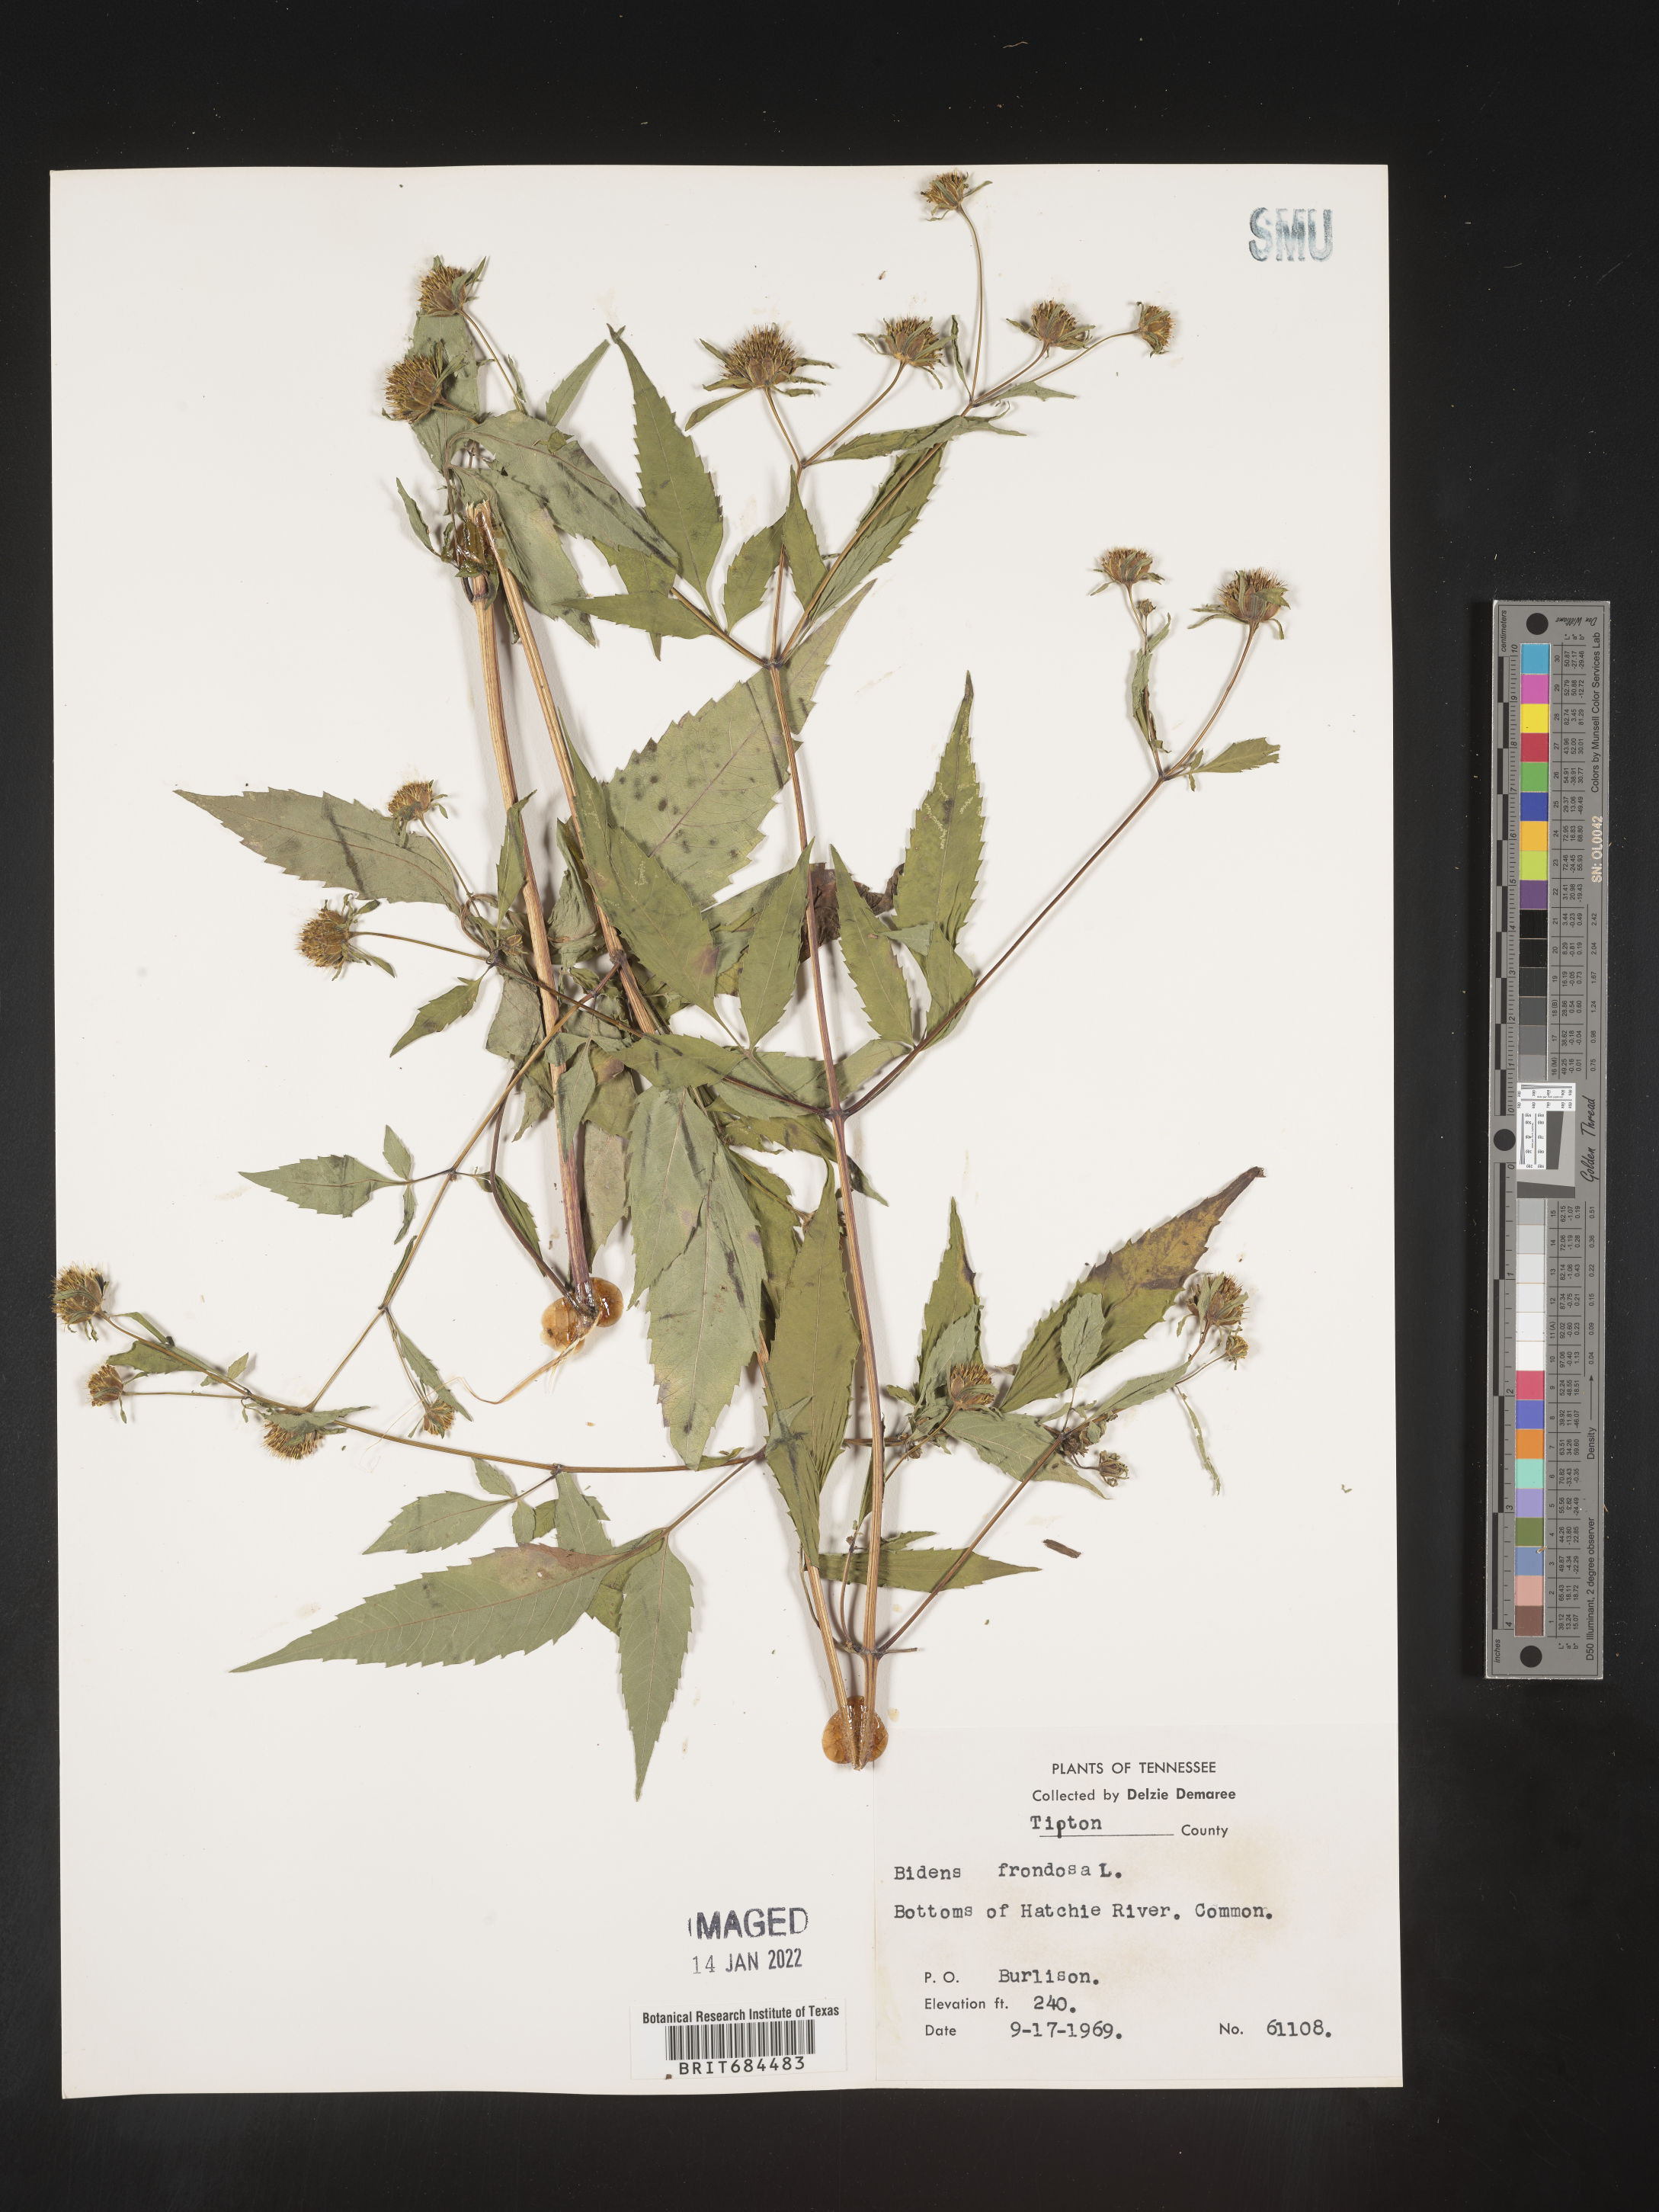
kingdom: Plantae
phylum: Tracheophyta
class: Magnoliopsida
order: Asterales
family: Asteraceae
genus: Bidens
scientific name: Bidens frondosa
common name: Beggarticks
